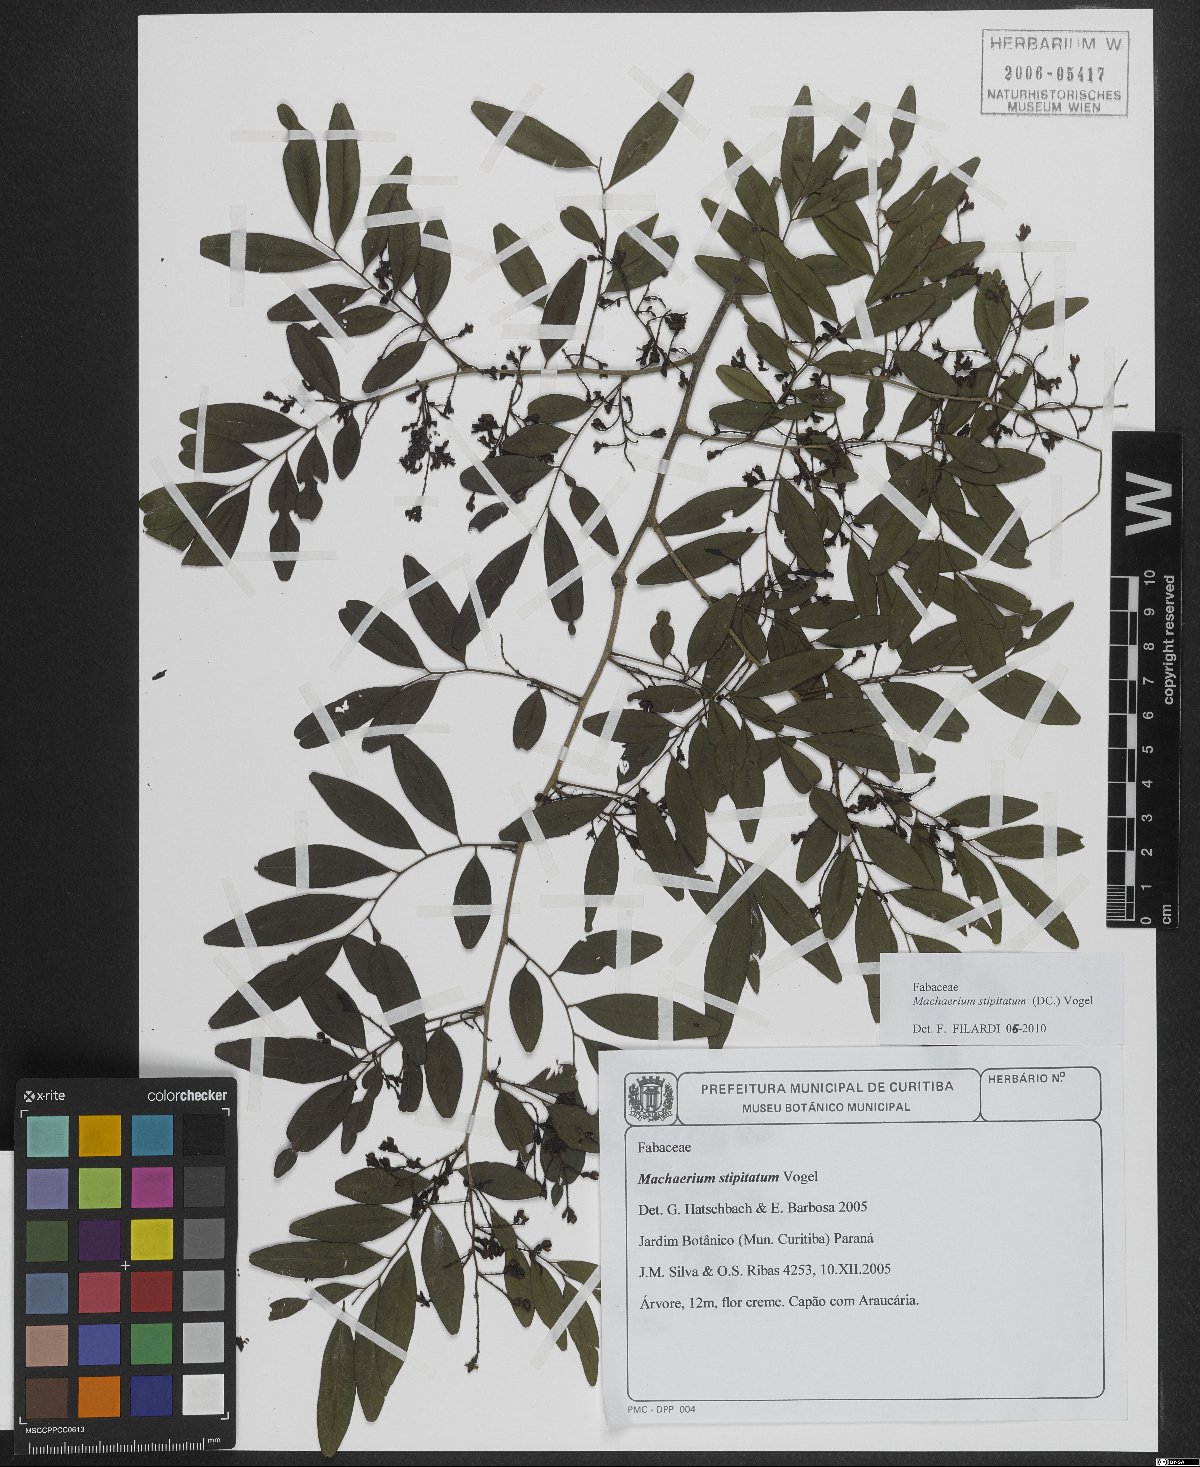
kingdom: Plantae
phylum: Tracheophyta
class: Magnoliopsida
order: Fabales
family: Fabaceae
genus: Machaerium
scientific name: Machaerium stipitatum
